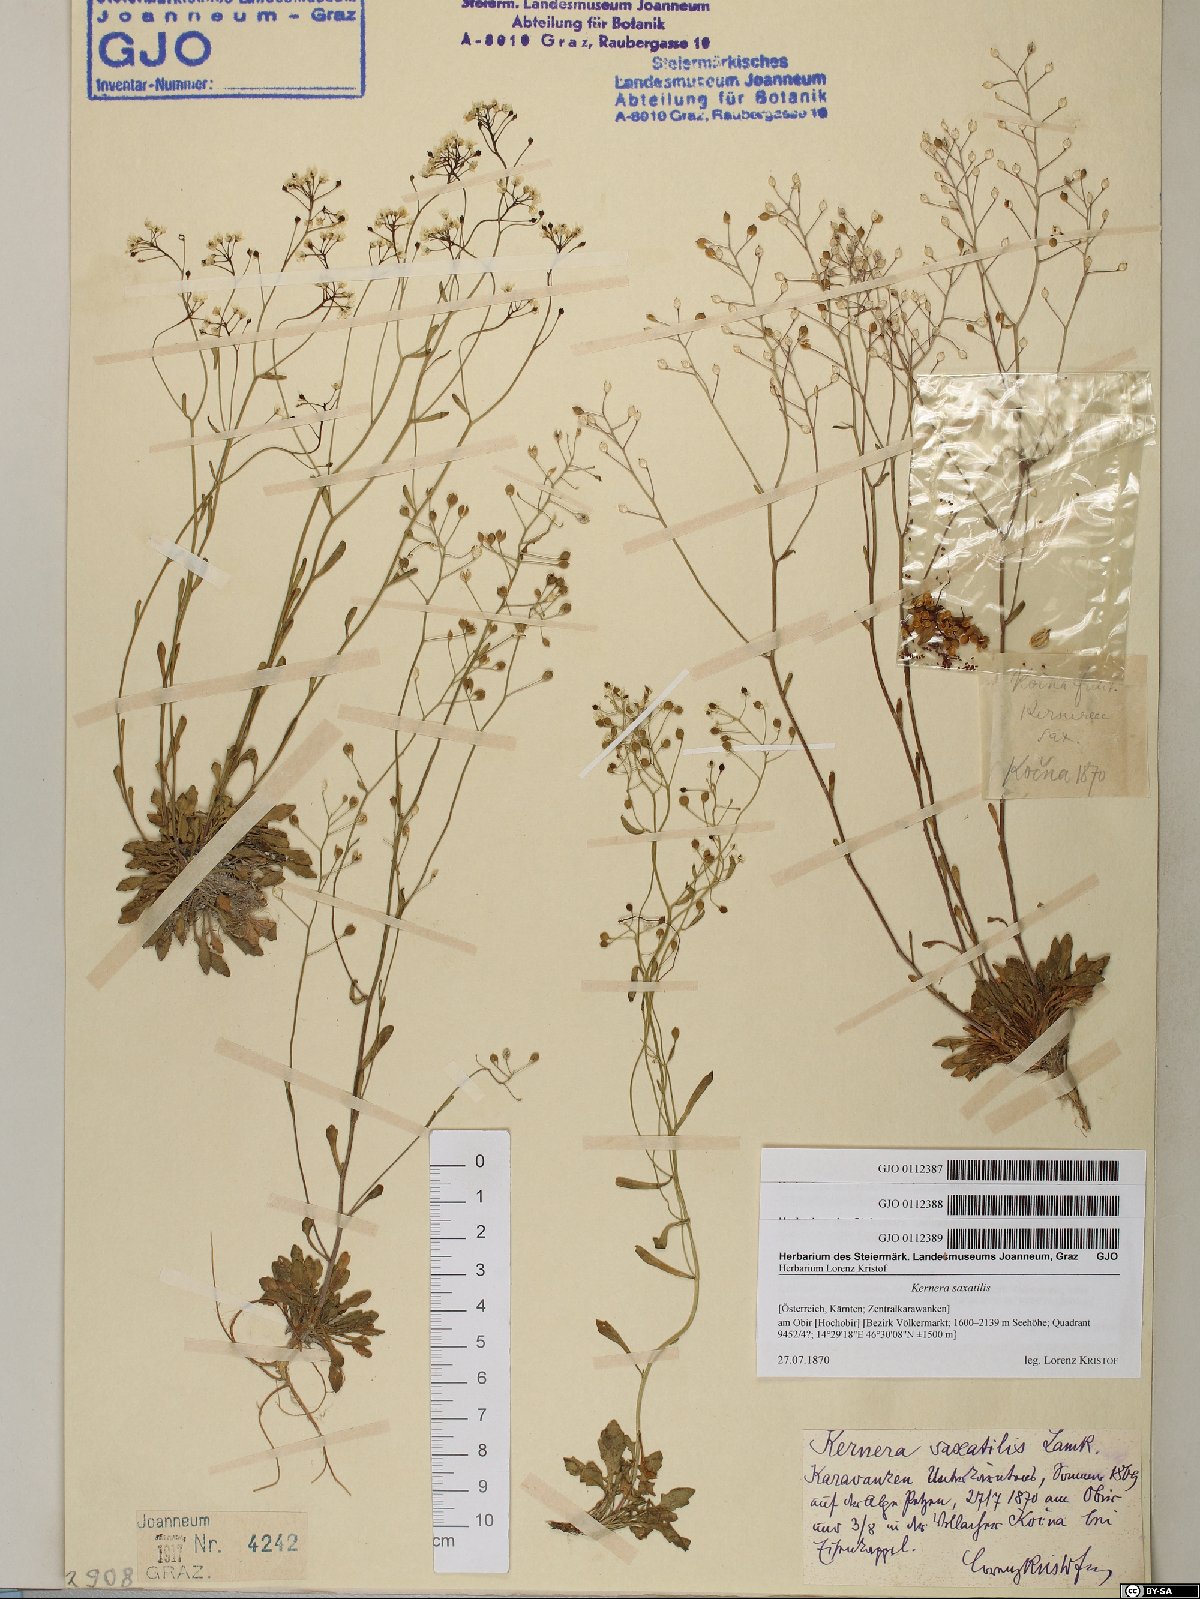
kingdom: Plantae
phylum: Tracheophyta
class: Magnoliopsida
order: Brassicales
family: Brassicaceae
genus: Kernera
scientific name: Kernera saxatilis
